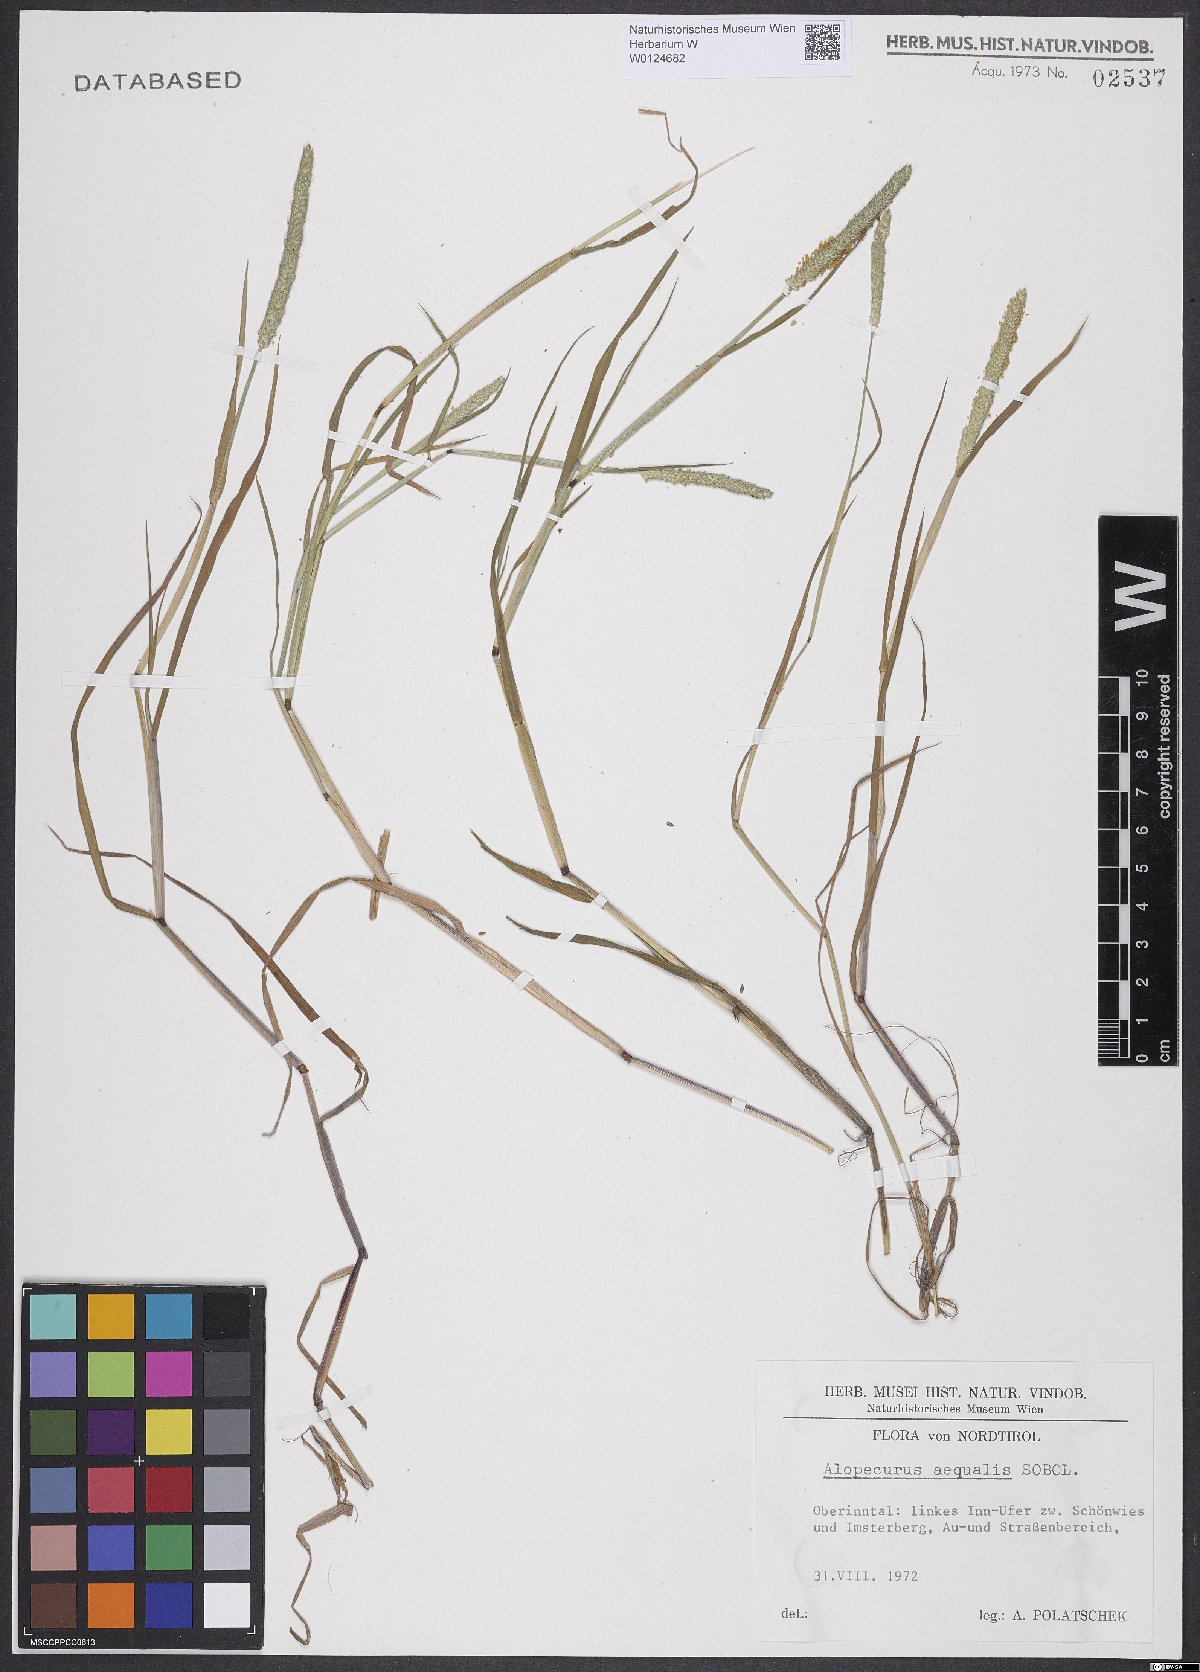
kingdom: Plantae
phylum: Tracheophyta
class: Liliopsida
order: Poales
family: Poaceae
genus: Alopecurus
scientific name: Alopecurus aequalis
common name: Orange foxtail
